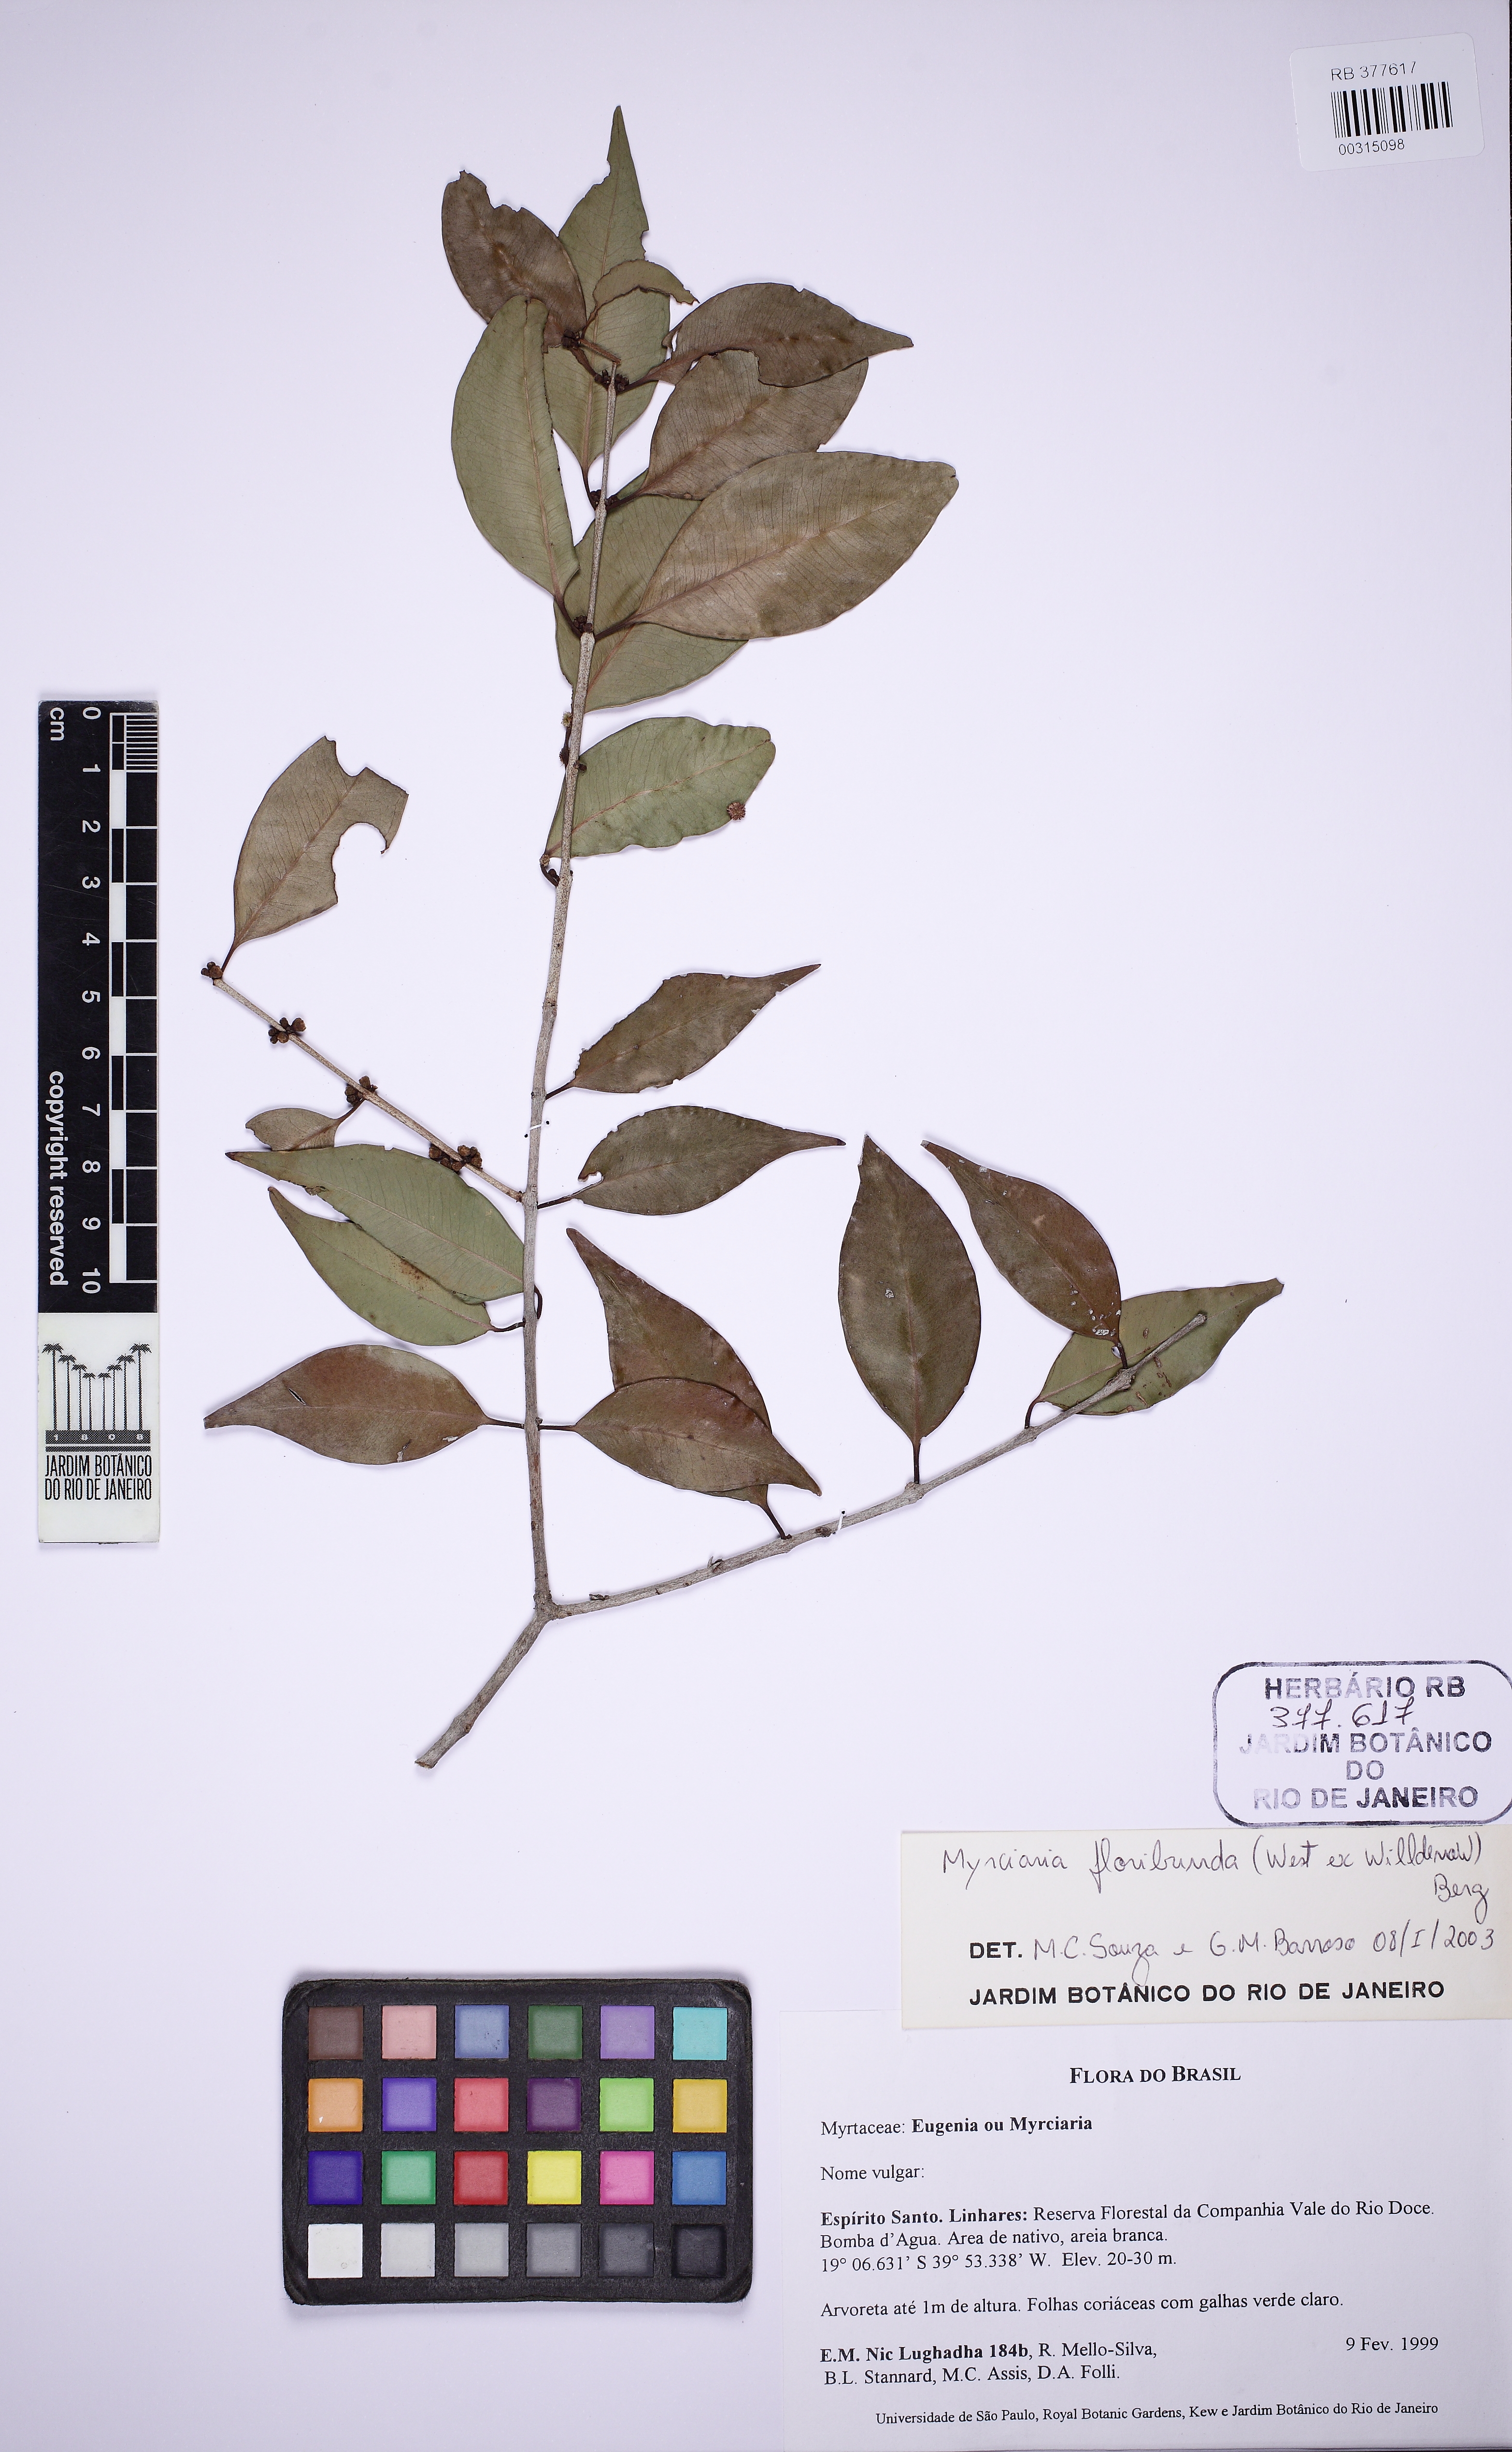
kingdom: Plantae
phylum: Tracheophyta
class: Magnoliopsida
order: Myrtales
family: Myrtaceae
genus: Myrciaria
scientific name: Myrciaria floribunda
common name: Guavaberry
